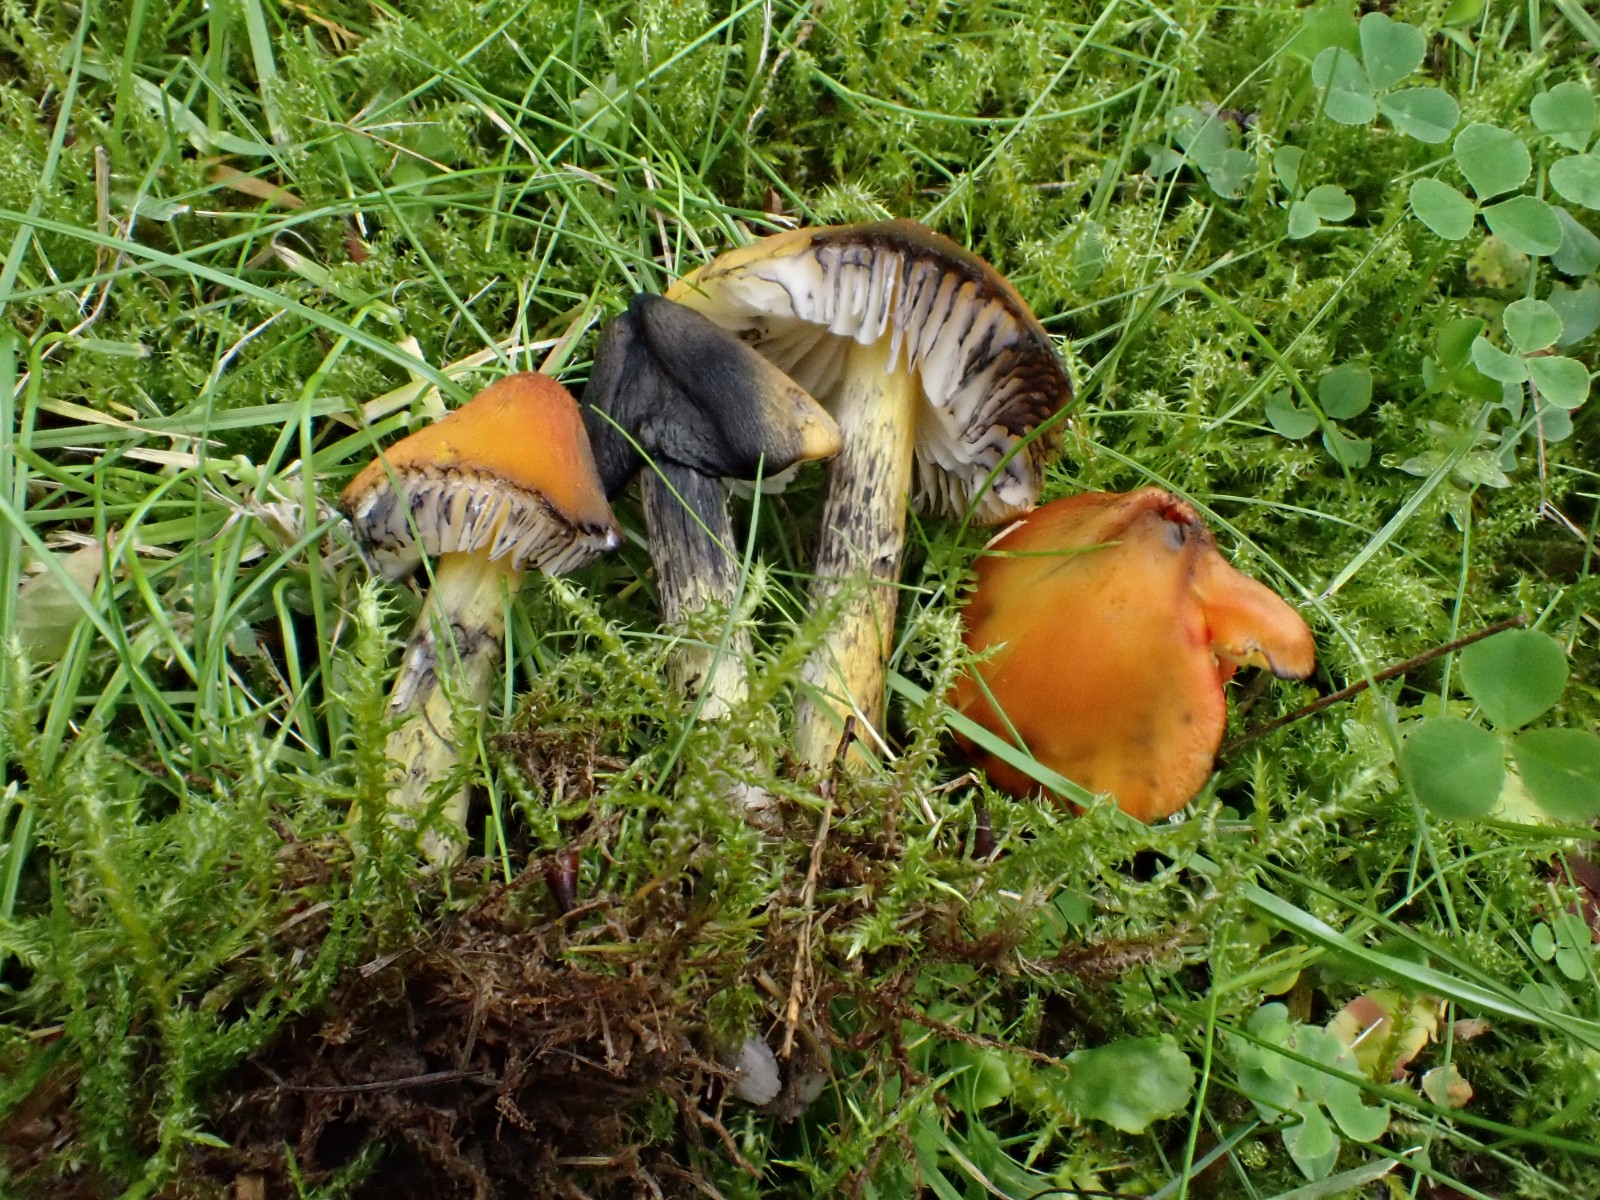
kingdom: Fungi
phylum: Basidiomycota
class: Agaricomycetes
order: Agaricales
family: Hygrophoraceae
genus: Hygrocybe
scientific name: Hygrocybe conica
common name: kegle-vokshat
